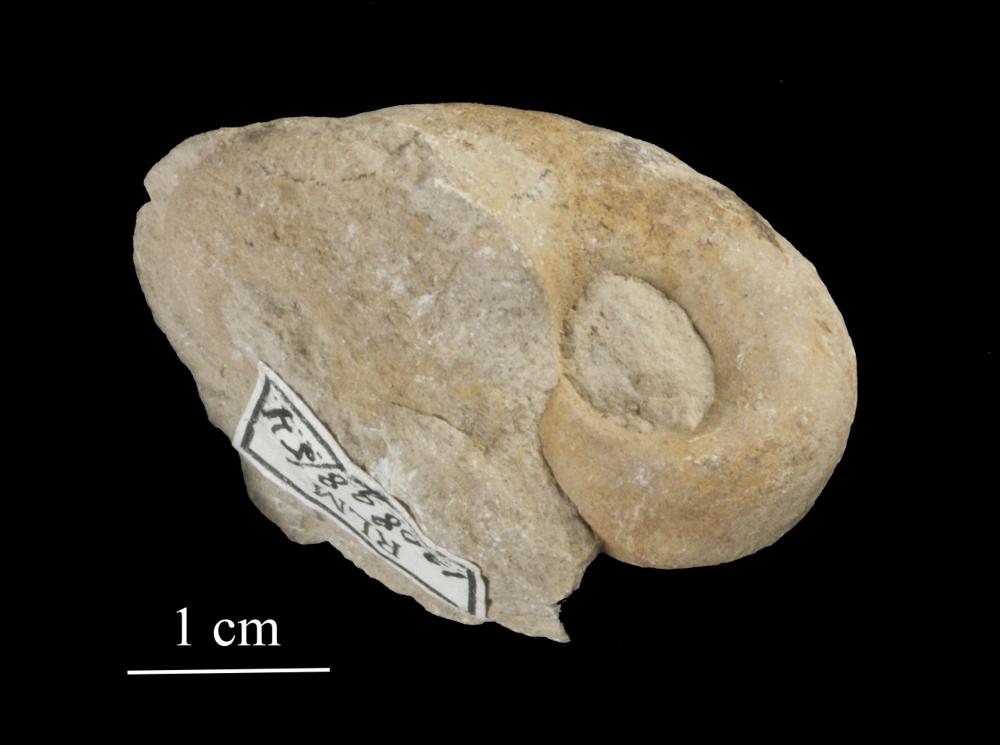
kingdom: Animalia
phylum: Mollusca
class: Gastropoda
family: Bucaniidae
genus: Salpingostoma
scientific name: Salpingostoma Bellerophon megalostoma
